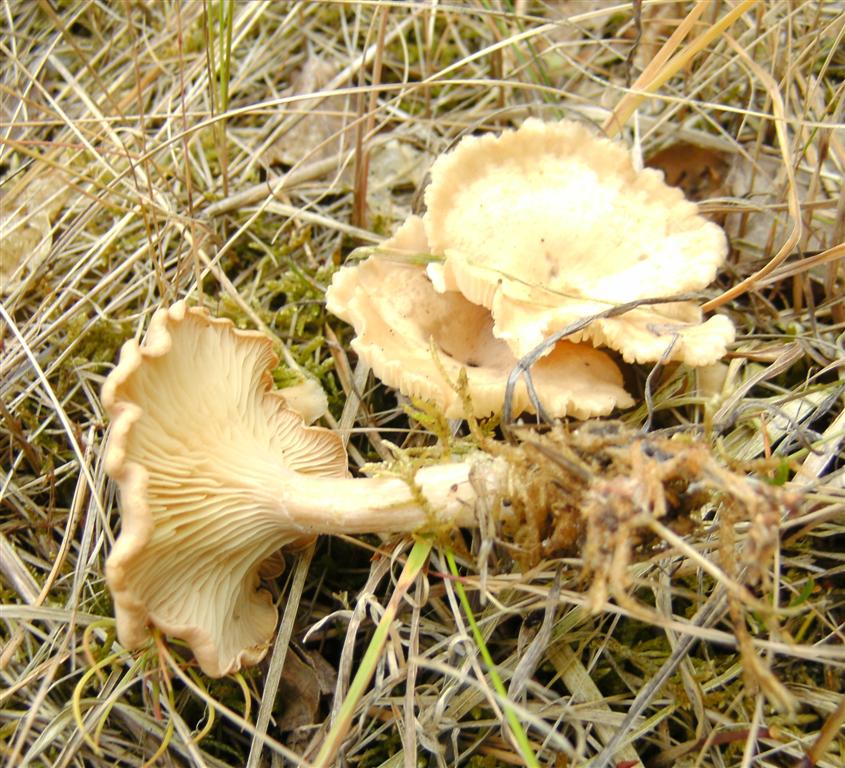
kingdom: Fungi
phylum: Basidiomycota
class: Agaricomycetes
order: Agaricales
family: Tricholomataceae
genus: Infundibulicybe
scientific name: Infundibulicybe gibba
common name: almindelig tragthat
